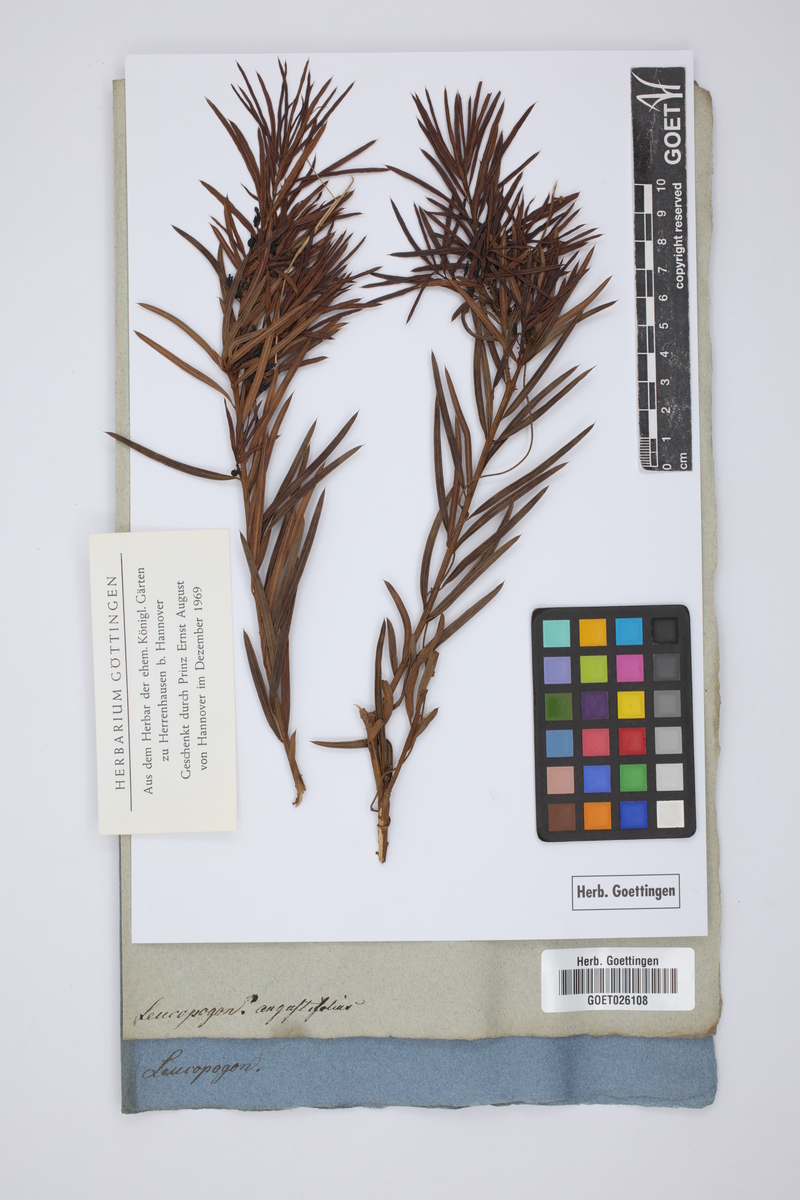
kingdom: Plantae
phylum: Tracheophyta
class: Magnoliopsida
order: Ericales
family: Ericaceae
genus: Leucopogon
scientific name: Leucopogon
